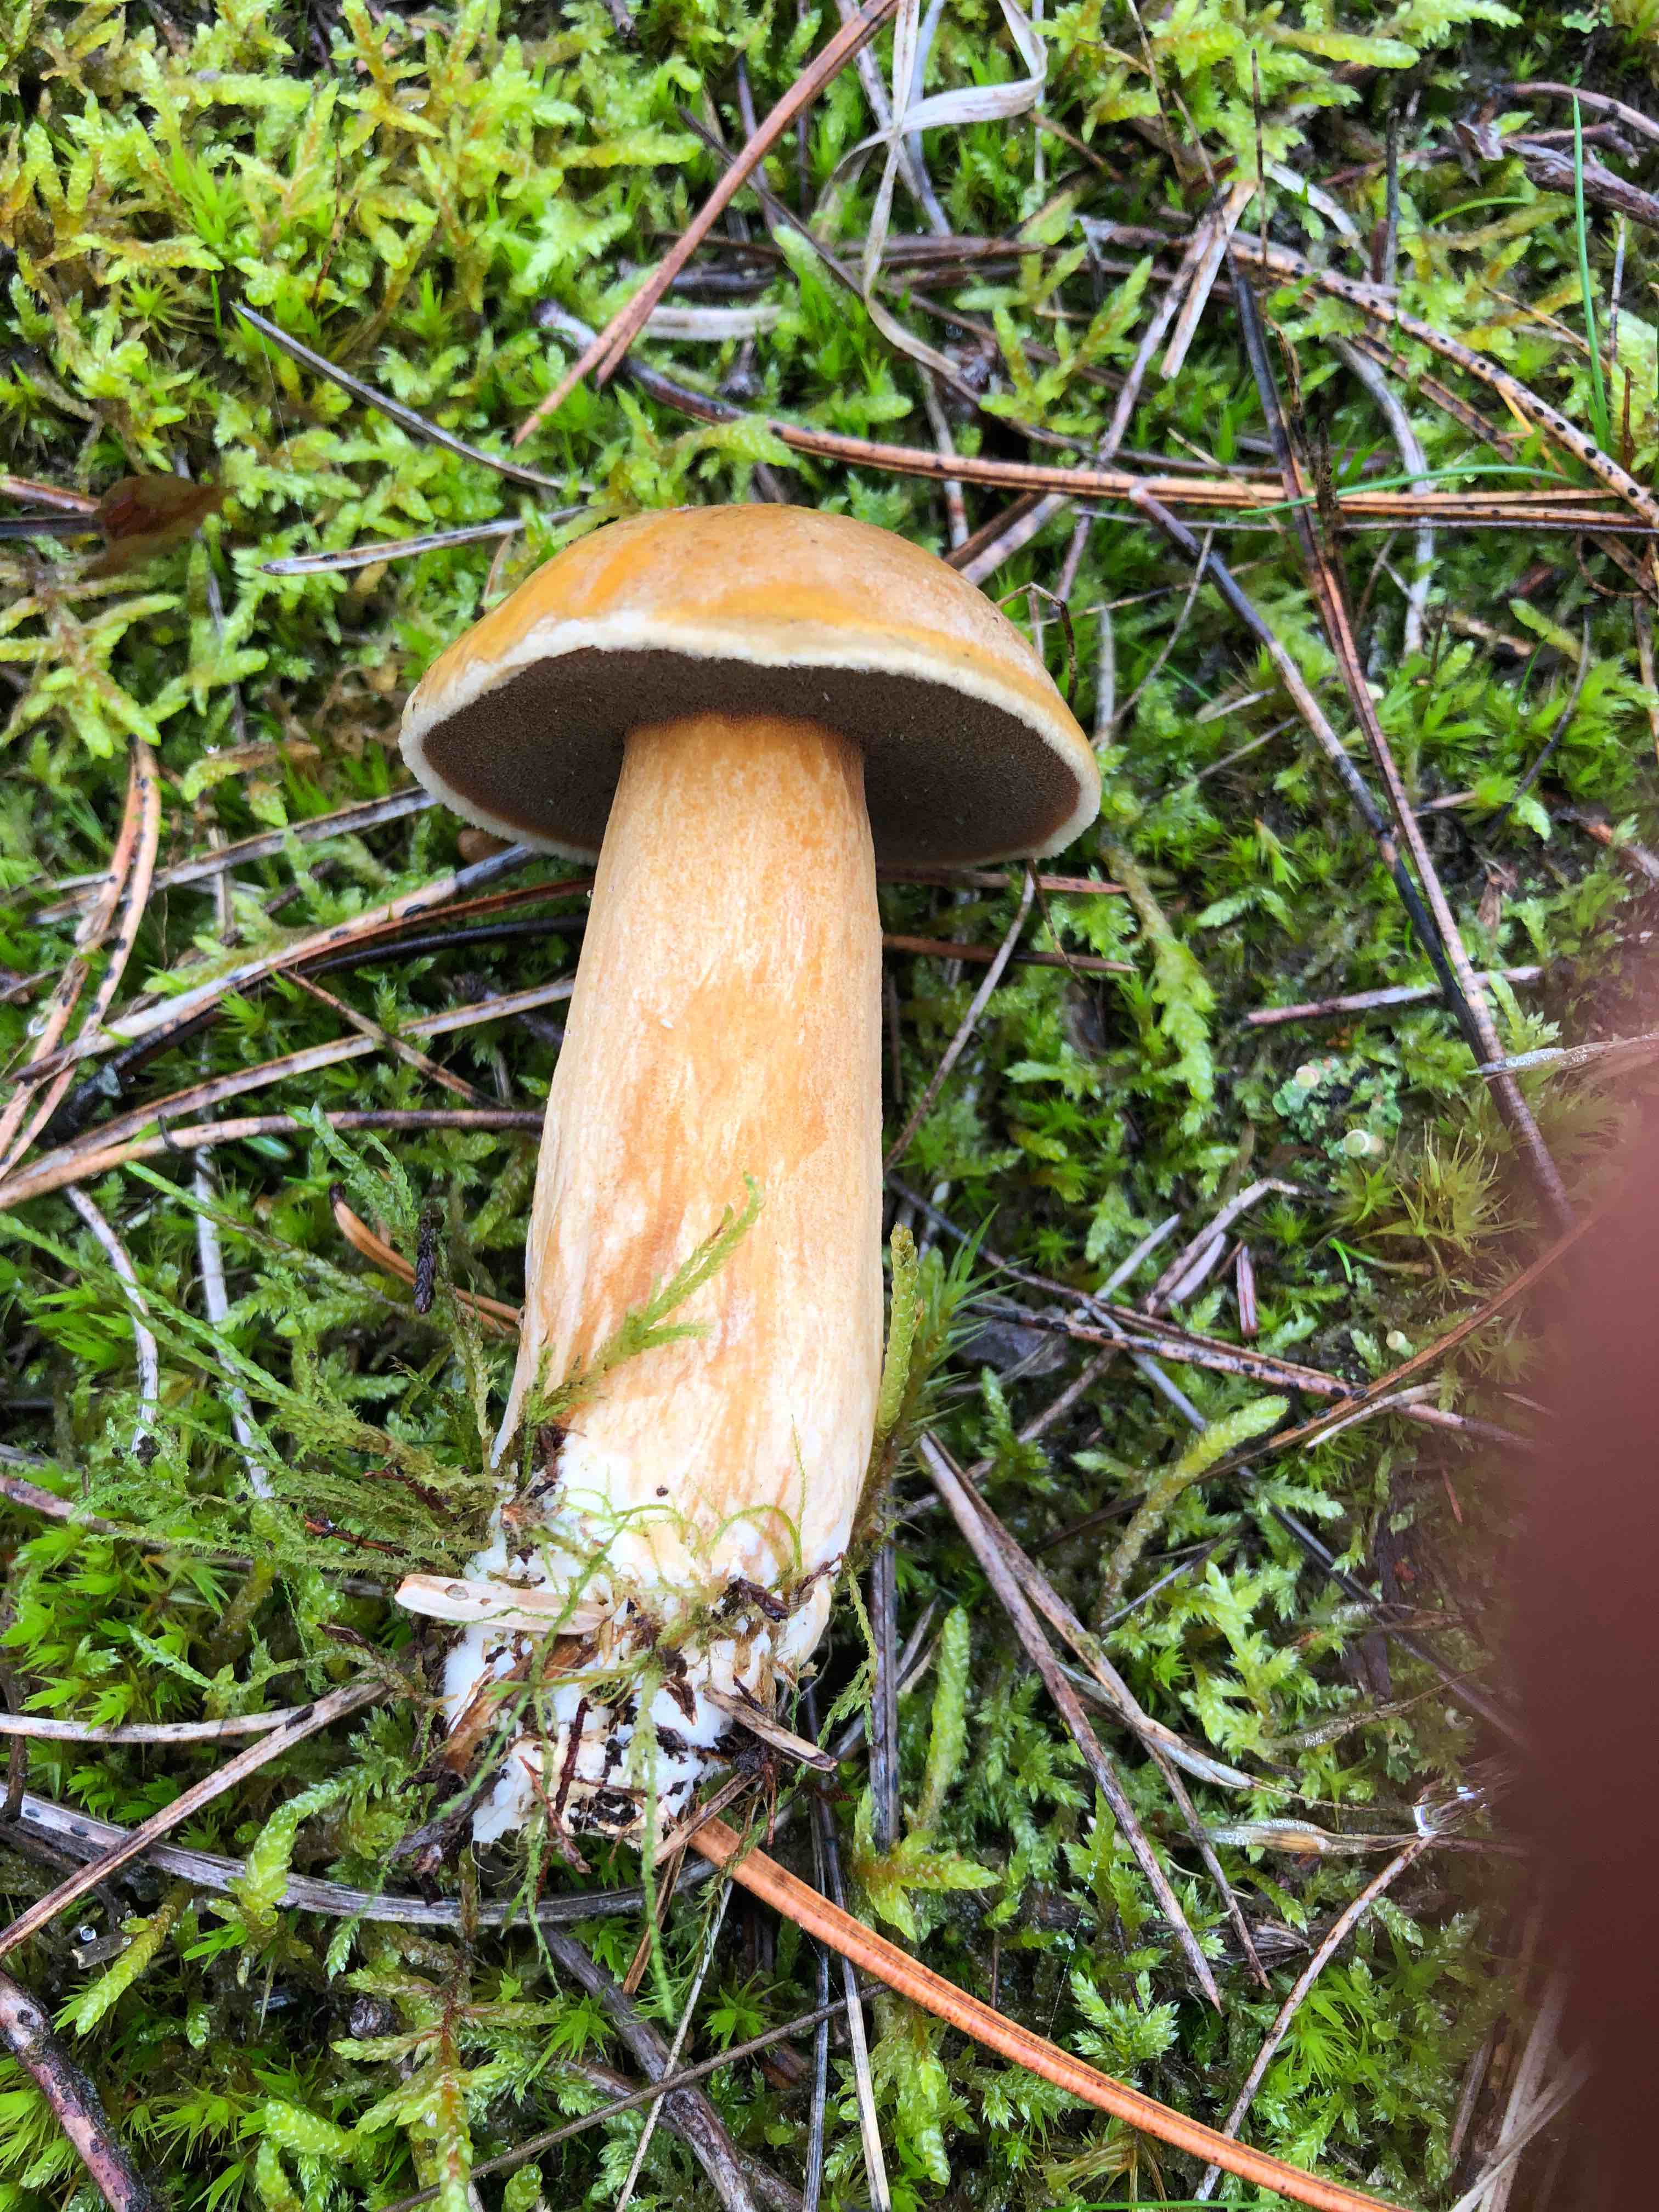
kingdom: Fungi
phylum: Basidiomycota
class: Agaricomycetes
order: Boletales
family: Suillaceae
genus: Suillus
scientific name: Suillus variegatus
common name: broget slimrørhat
